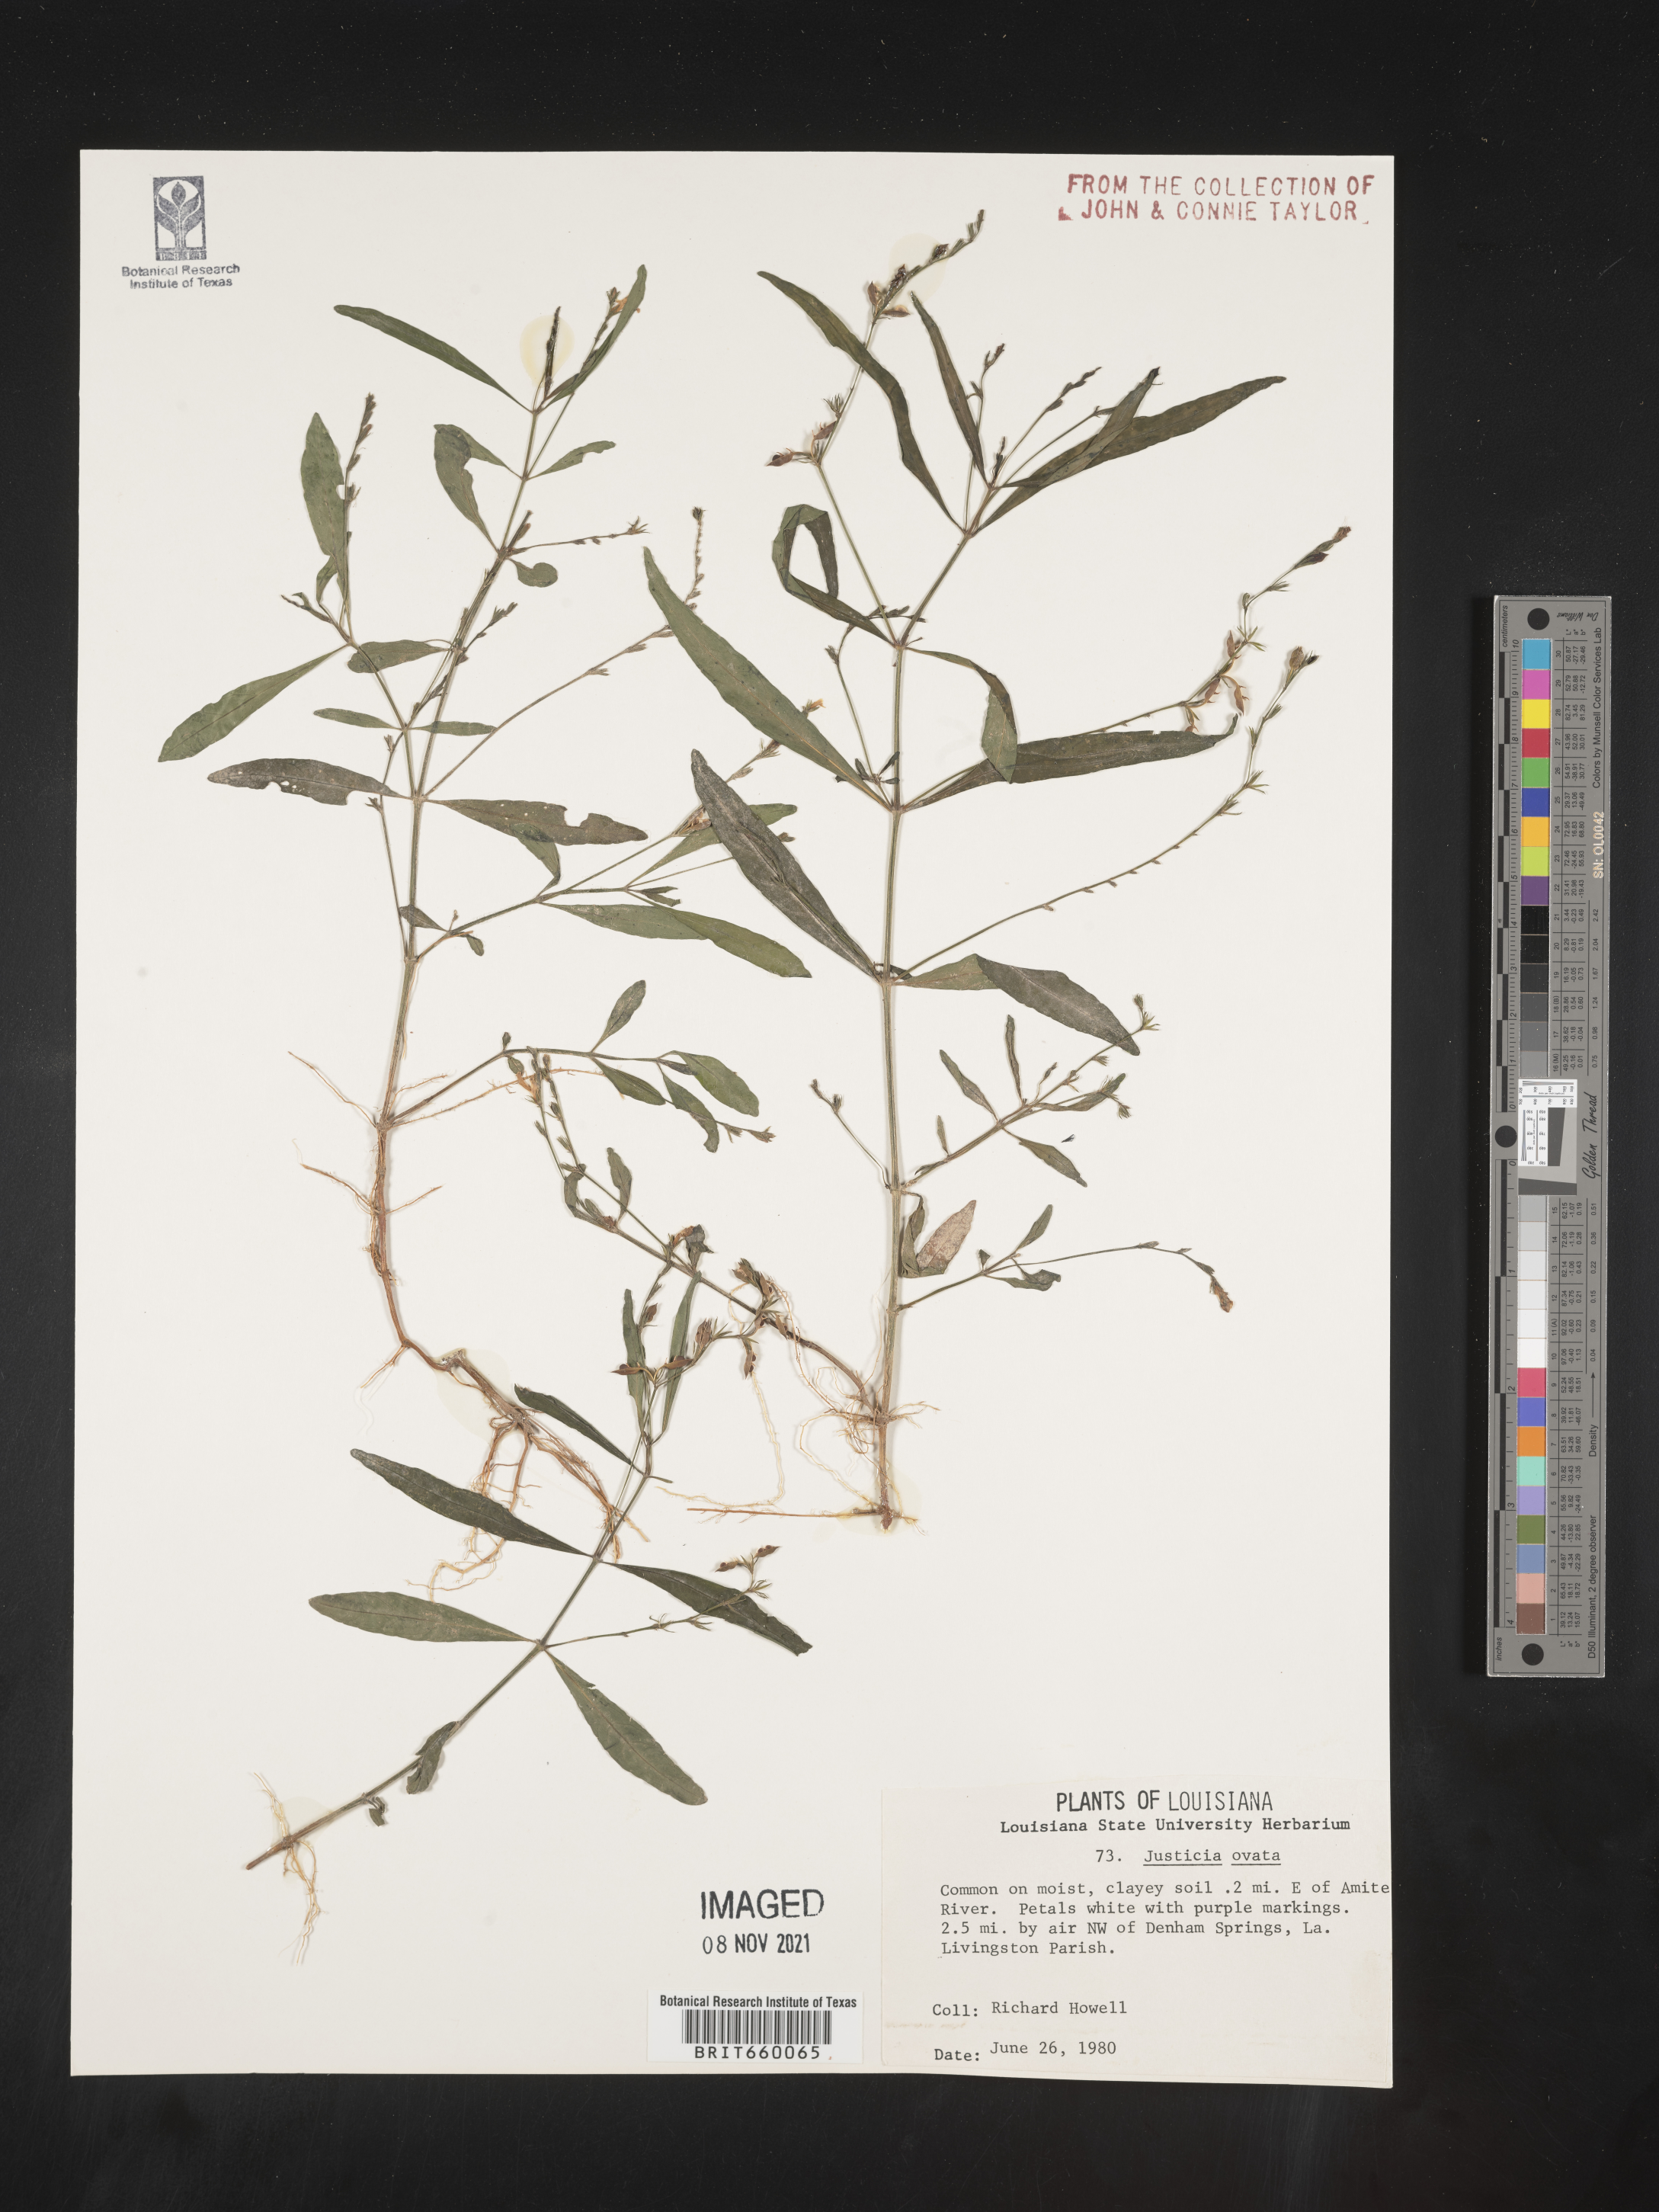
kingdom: Plantae
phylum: Tracheophyta
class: Magnoliopsida
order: Lamiales
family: Acanthaceae
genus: Dianthera
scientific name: Dianthera ovata
